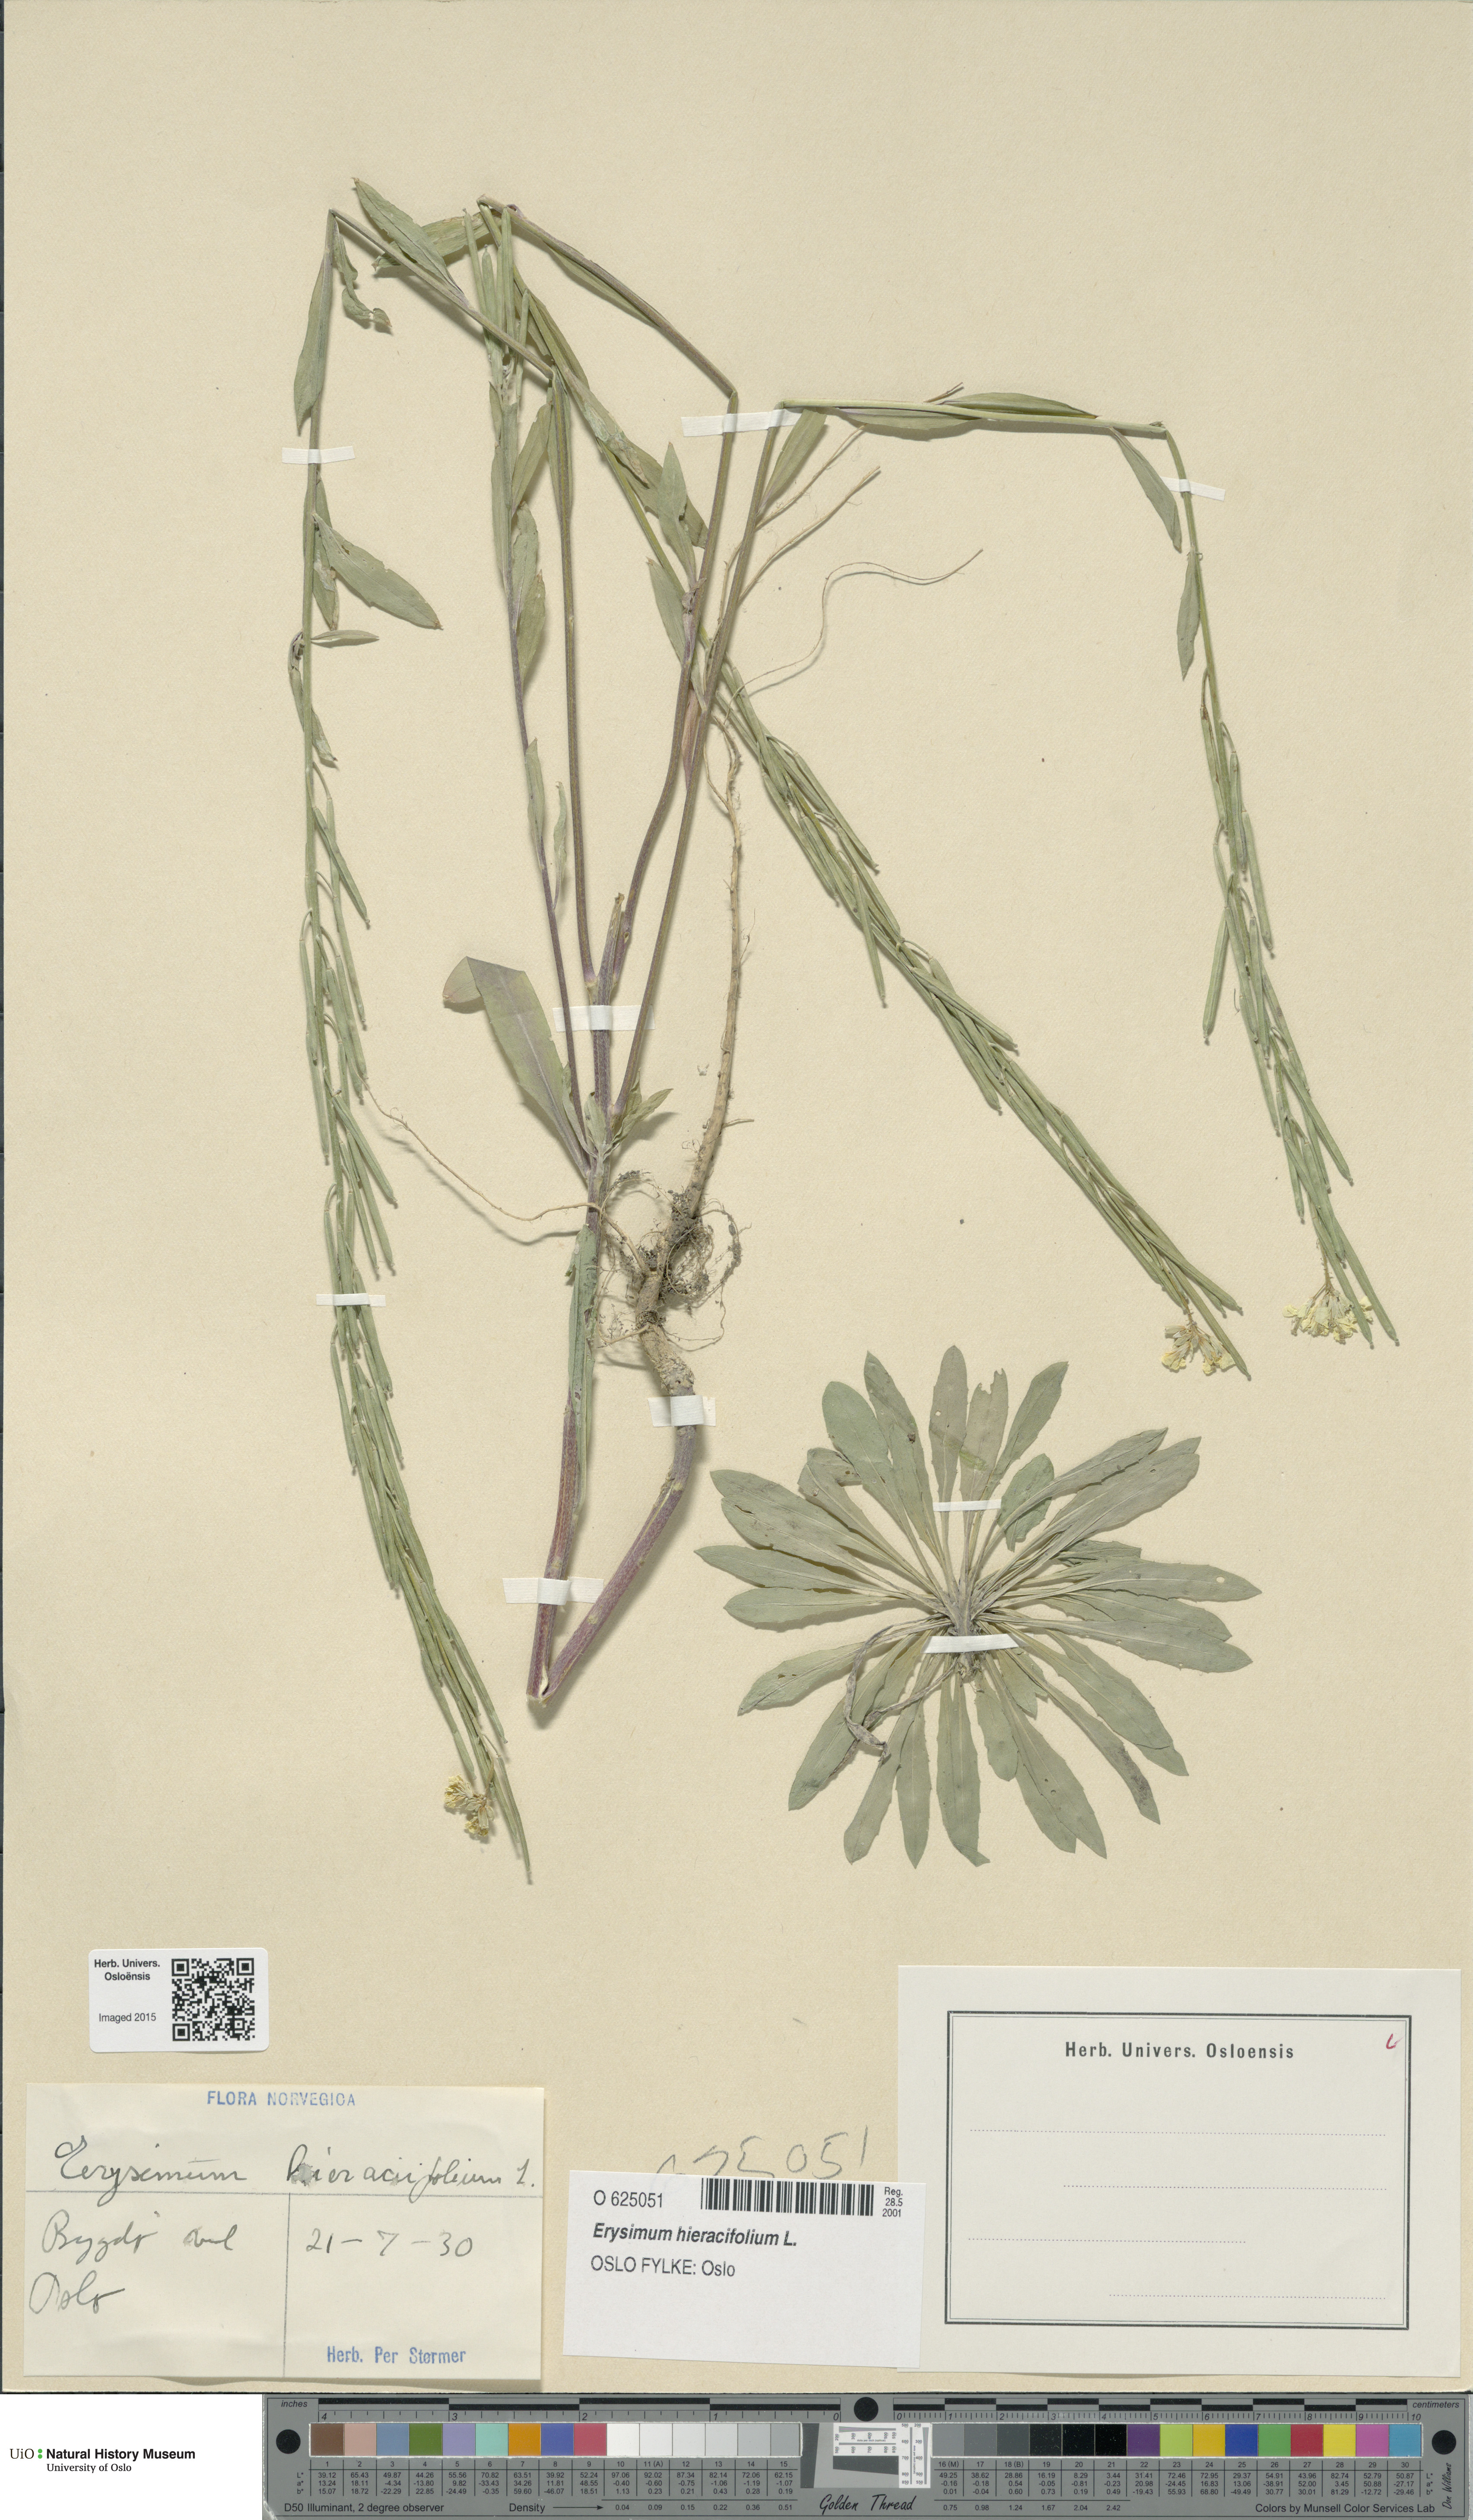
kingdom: Plantae
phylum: Tracheophyta
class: Magnoliopsida
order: Brassicales
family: Brassicaceae
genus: Erysimum
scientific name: Erysimum virgatum
